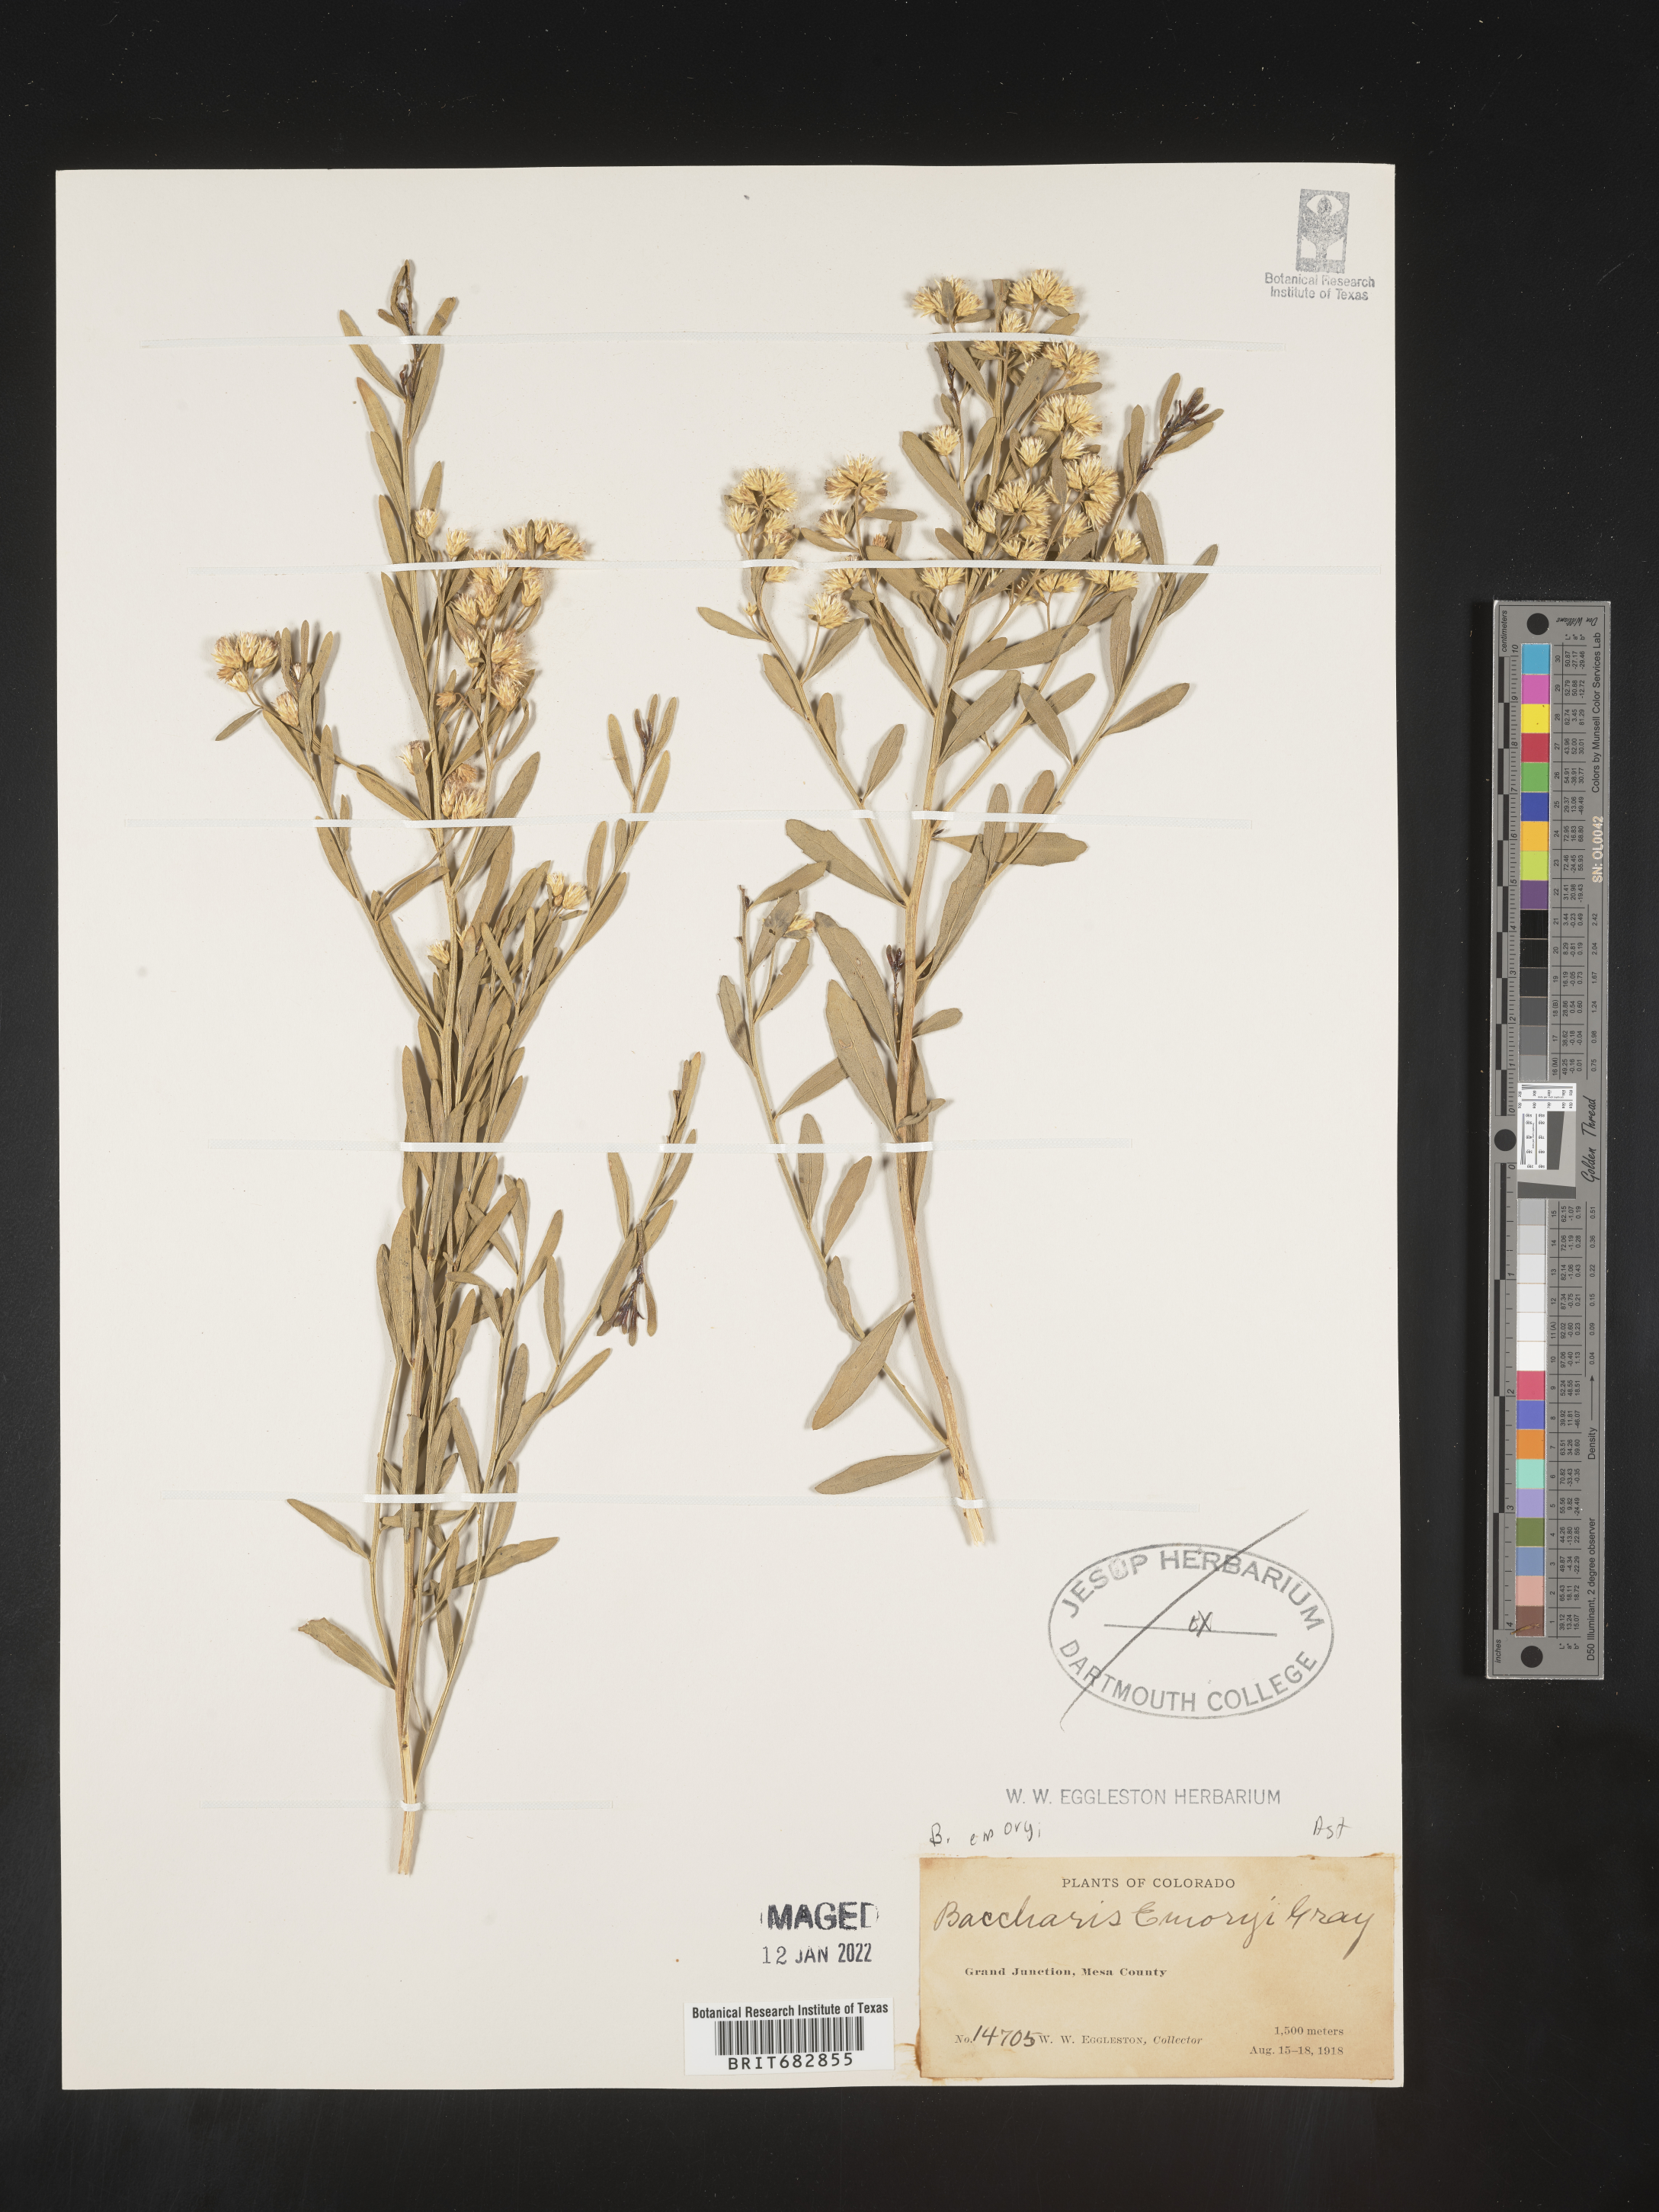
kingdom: Plantae
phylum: Tracheophyta
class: Magnoliopsida
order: Asterales
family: Asteraceae
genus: Baccharis
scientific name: Baccharis salicina
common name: Willow baccharis
